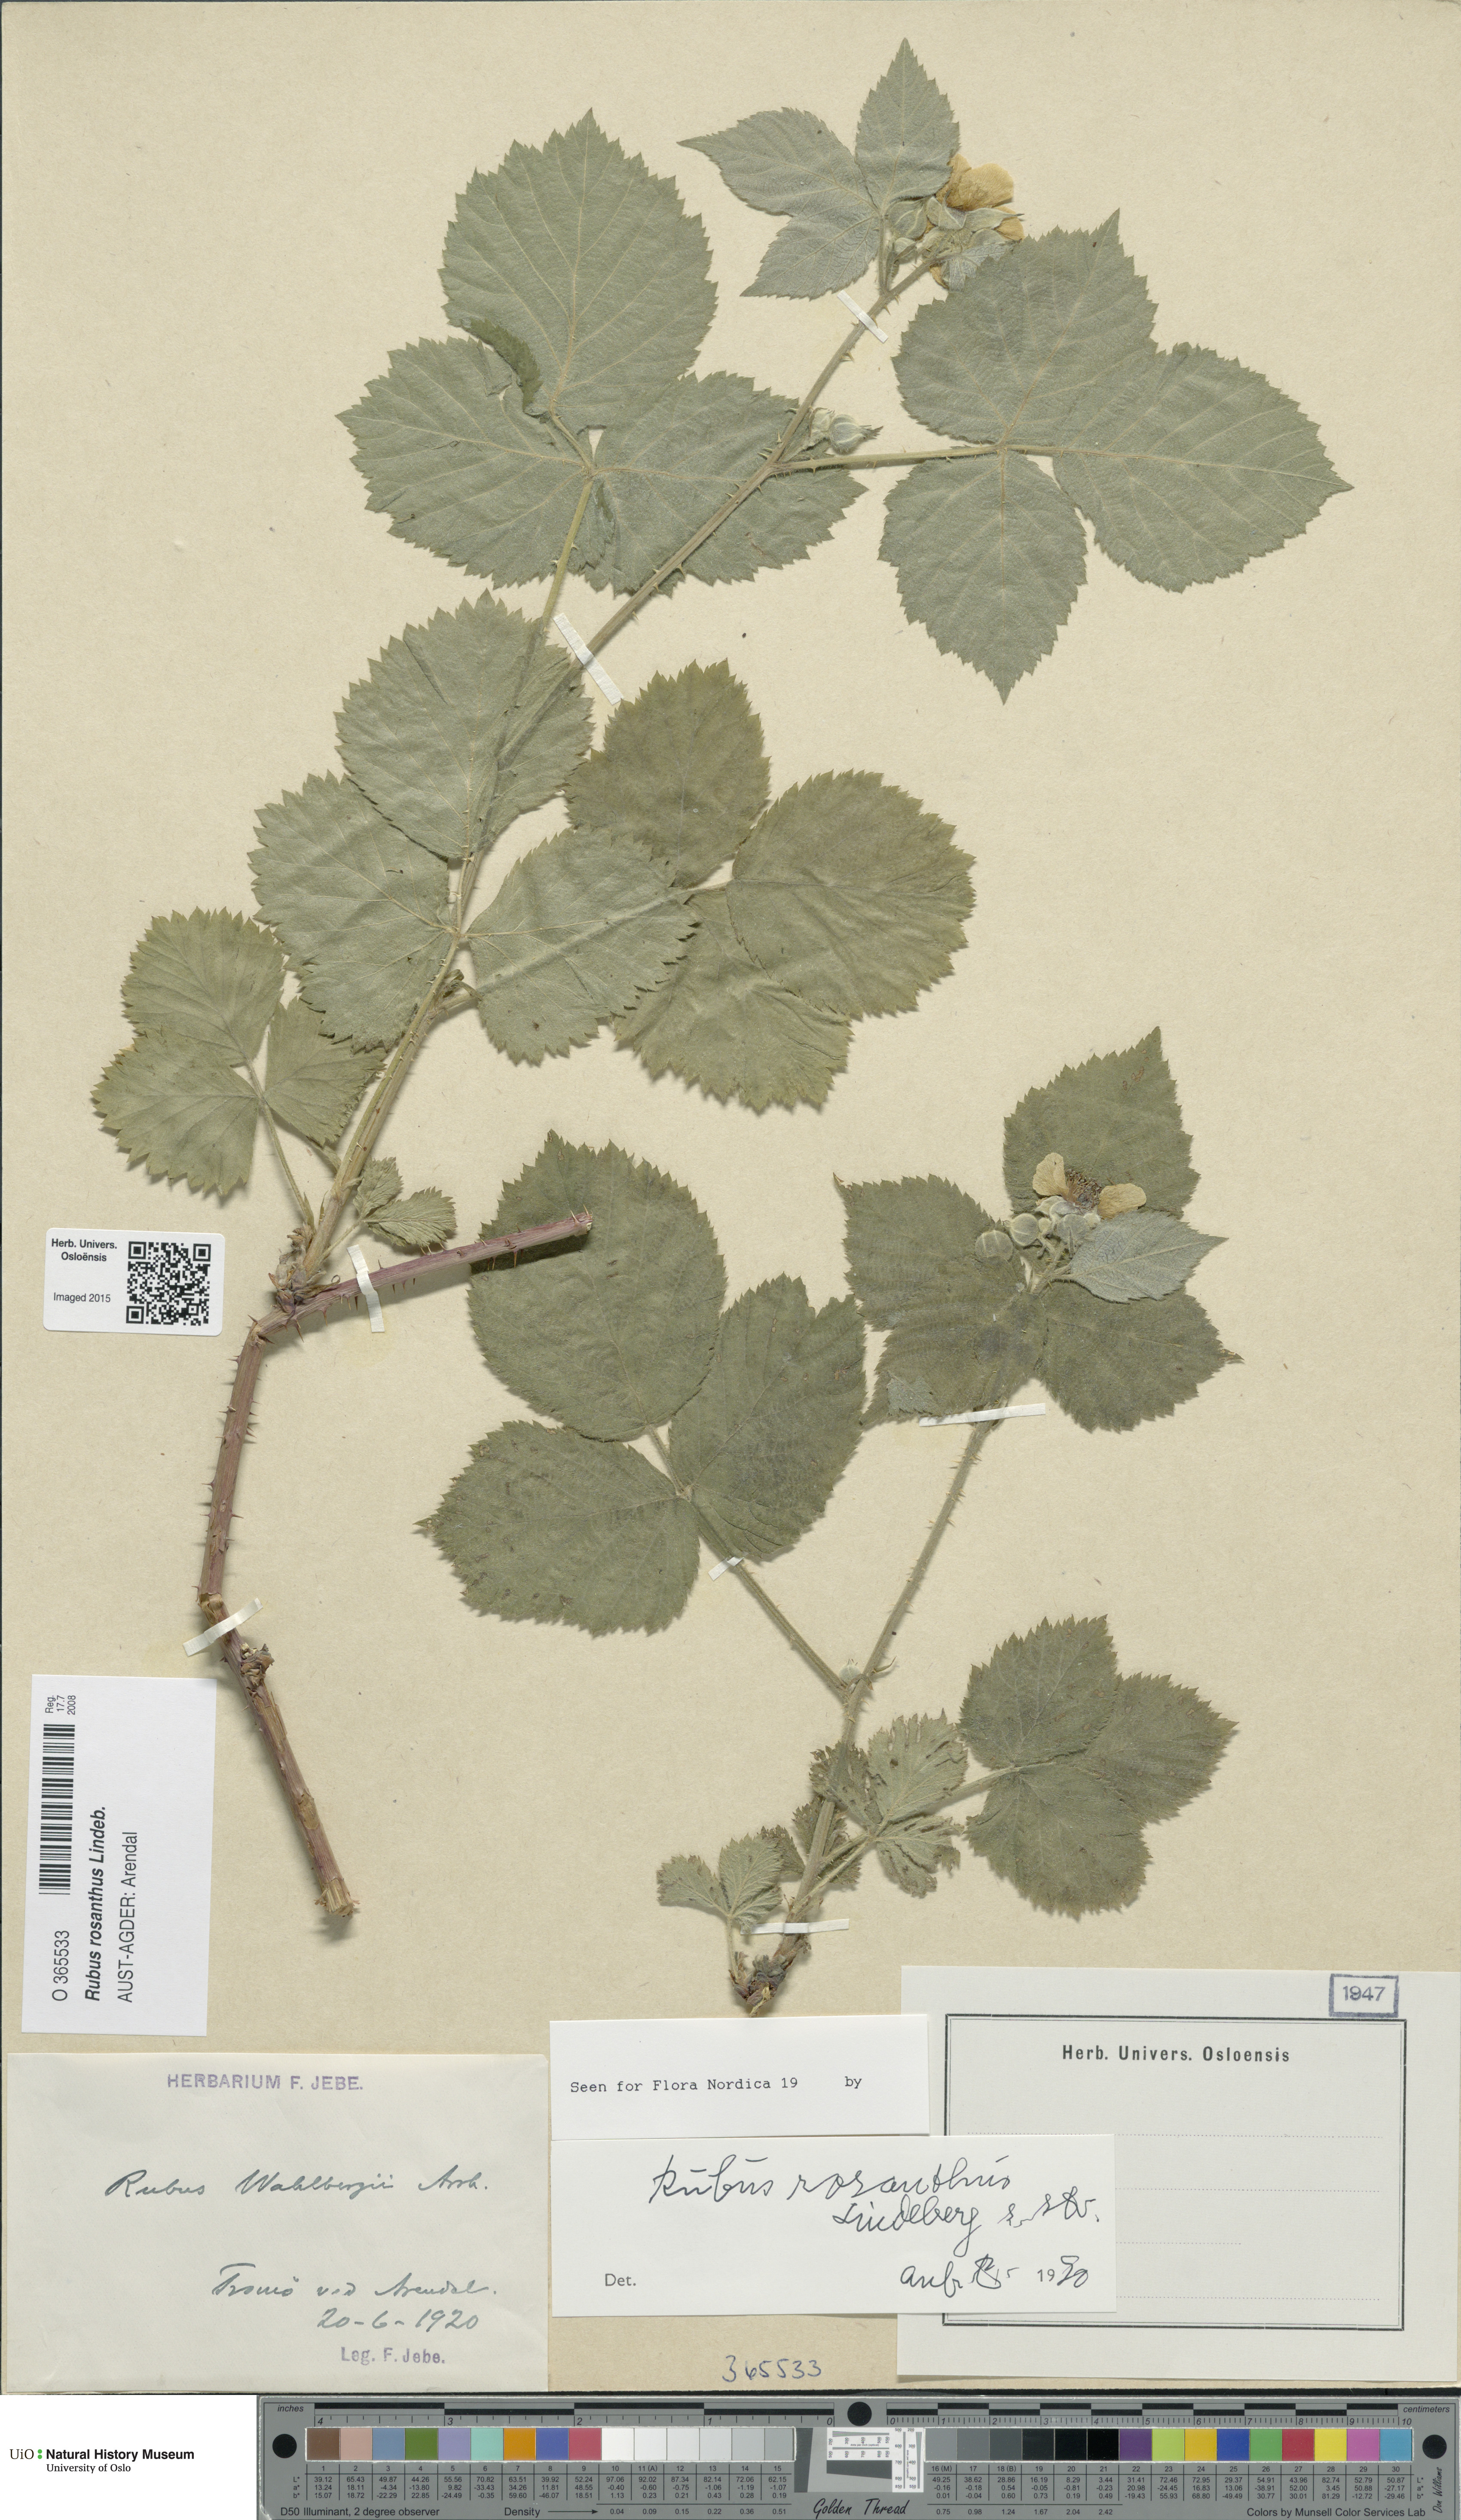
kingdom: Plantae
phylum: Tracheophyta
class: Magnoliopsida
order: Rosales
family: Rosaceae
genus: Rubus
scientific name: Rubus rosanthus
